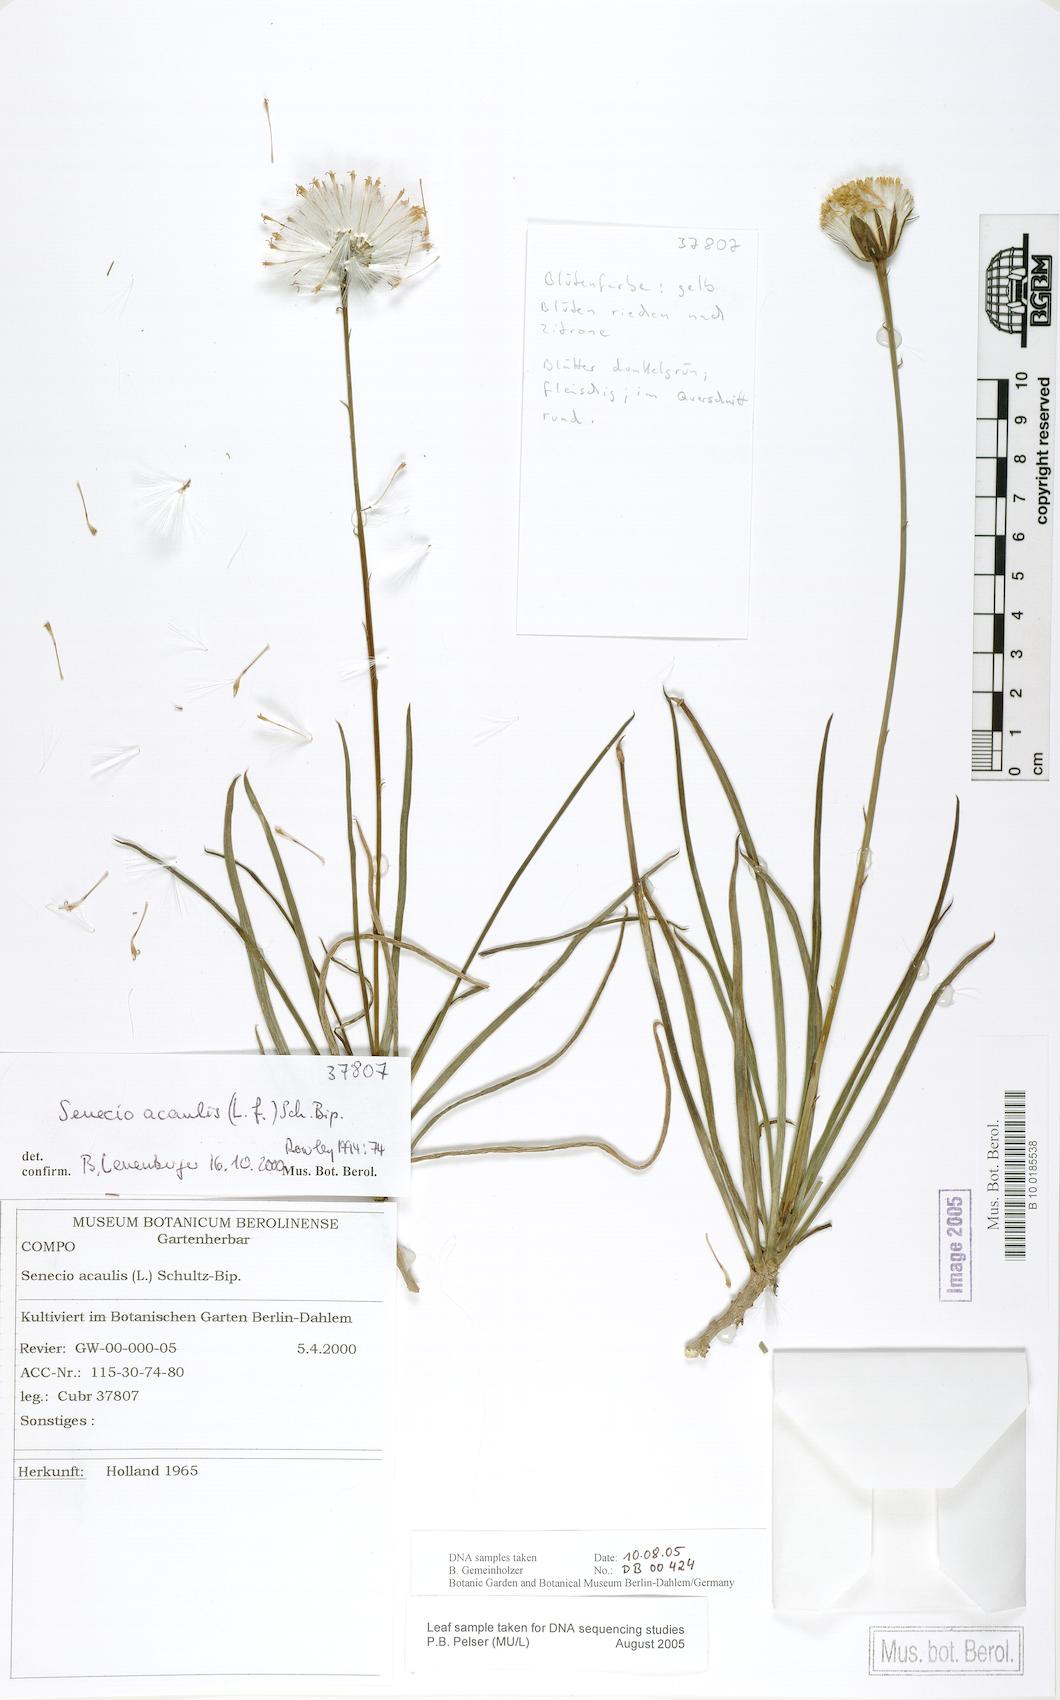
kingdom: Plantae
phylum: Tracheophyta
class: Magnoliopsida
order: Asterales
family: Asteraceae
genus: Curio
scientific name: Curio acaulis
